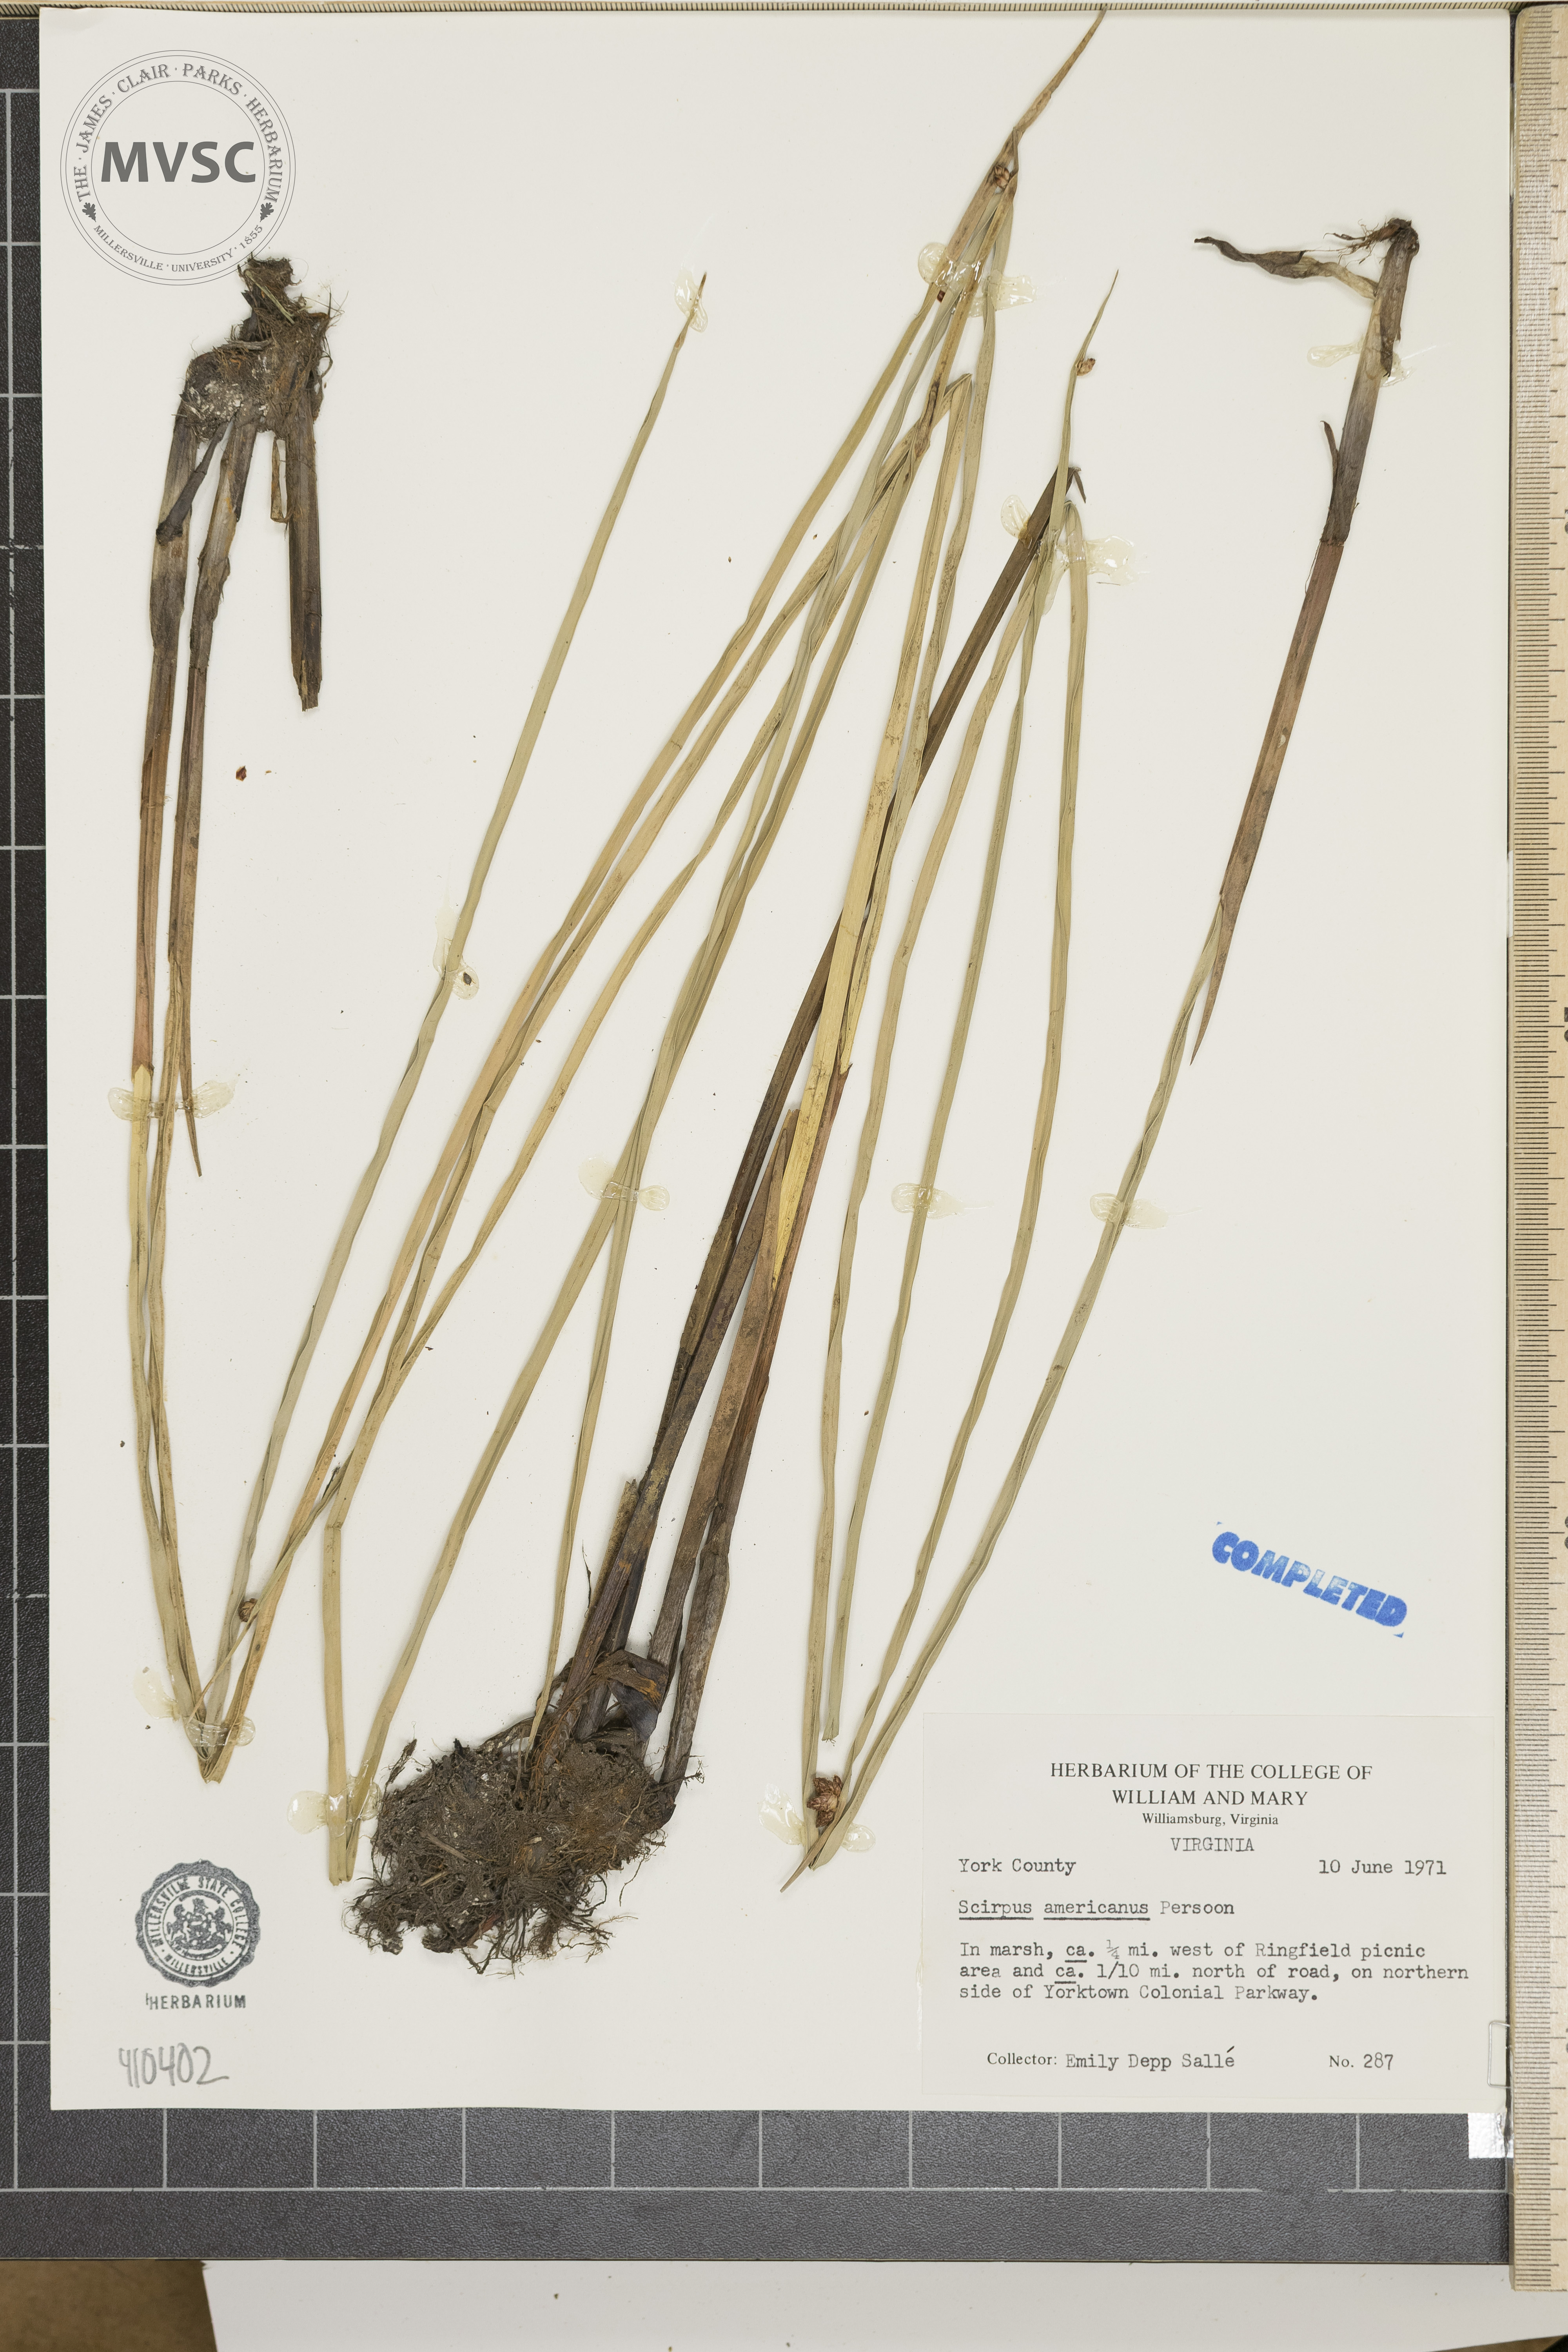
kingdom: Plantae
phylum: Tracheophyta
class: Liliopsida
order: Poales
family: Cyperaceae
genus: Scirpus
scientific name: Scirpus polyphyllus
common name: Leafy bulrush
